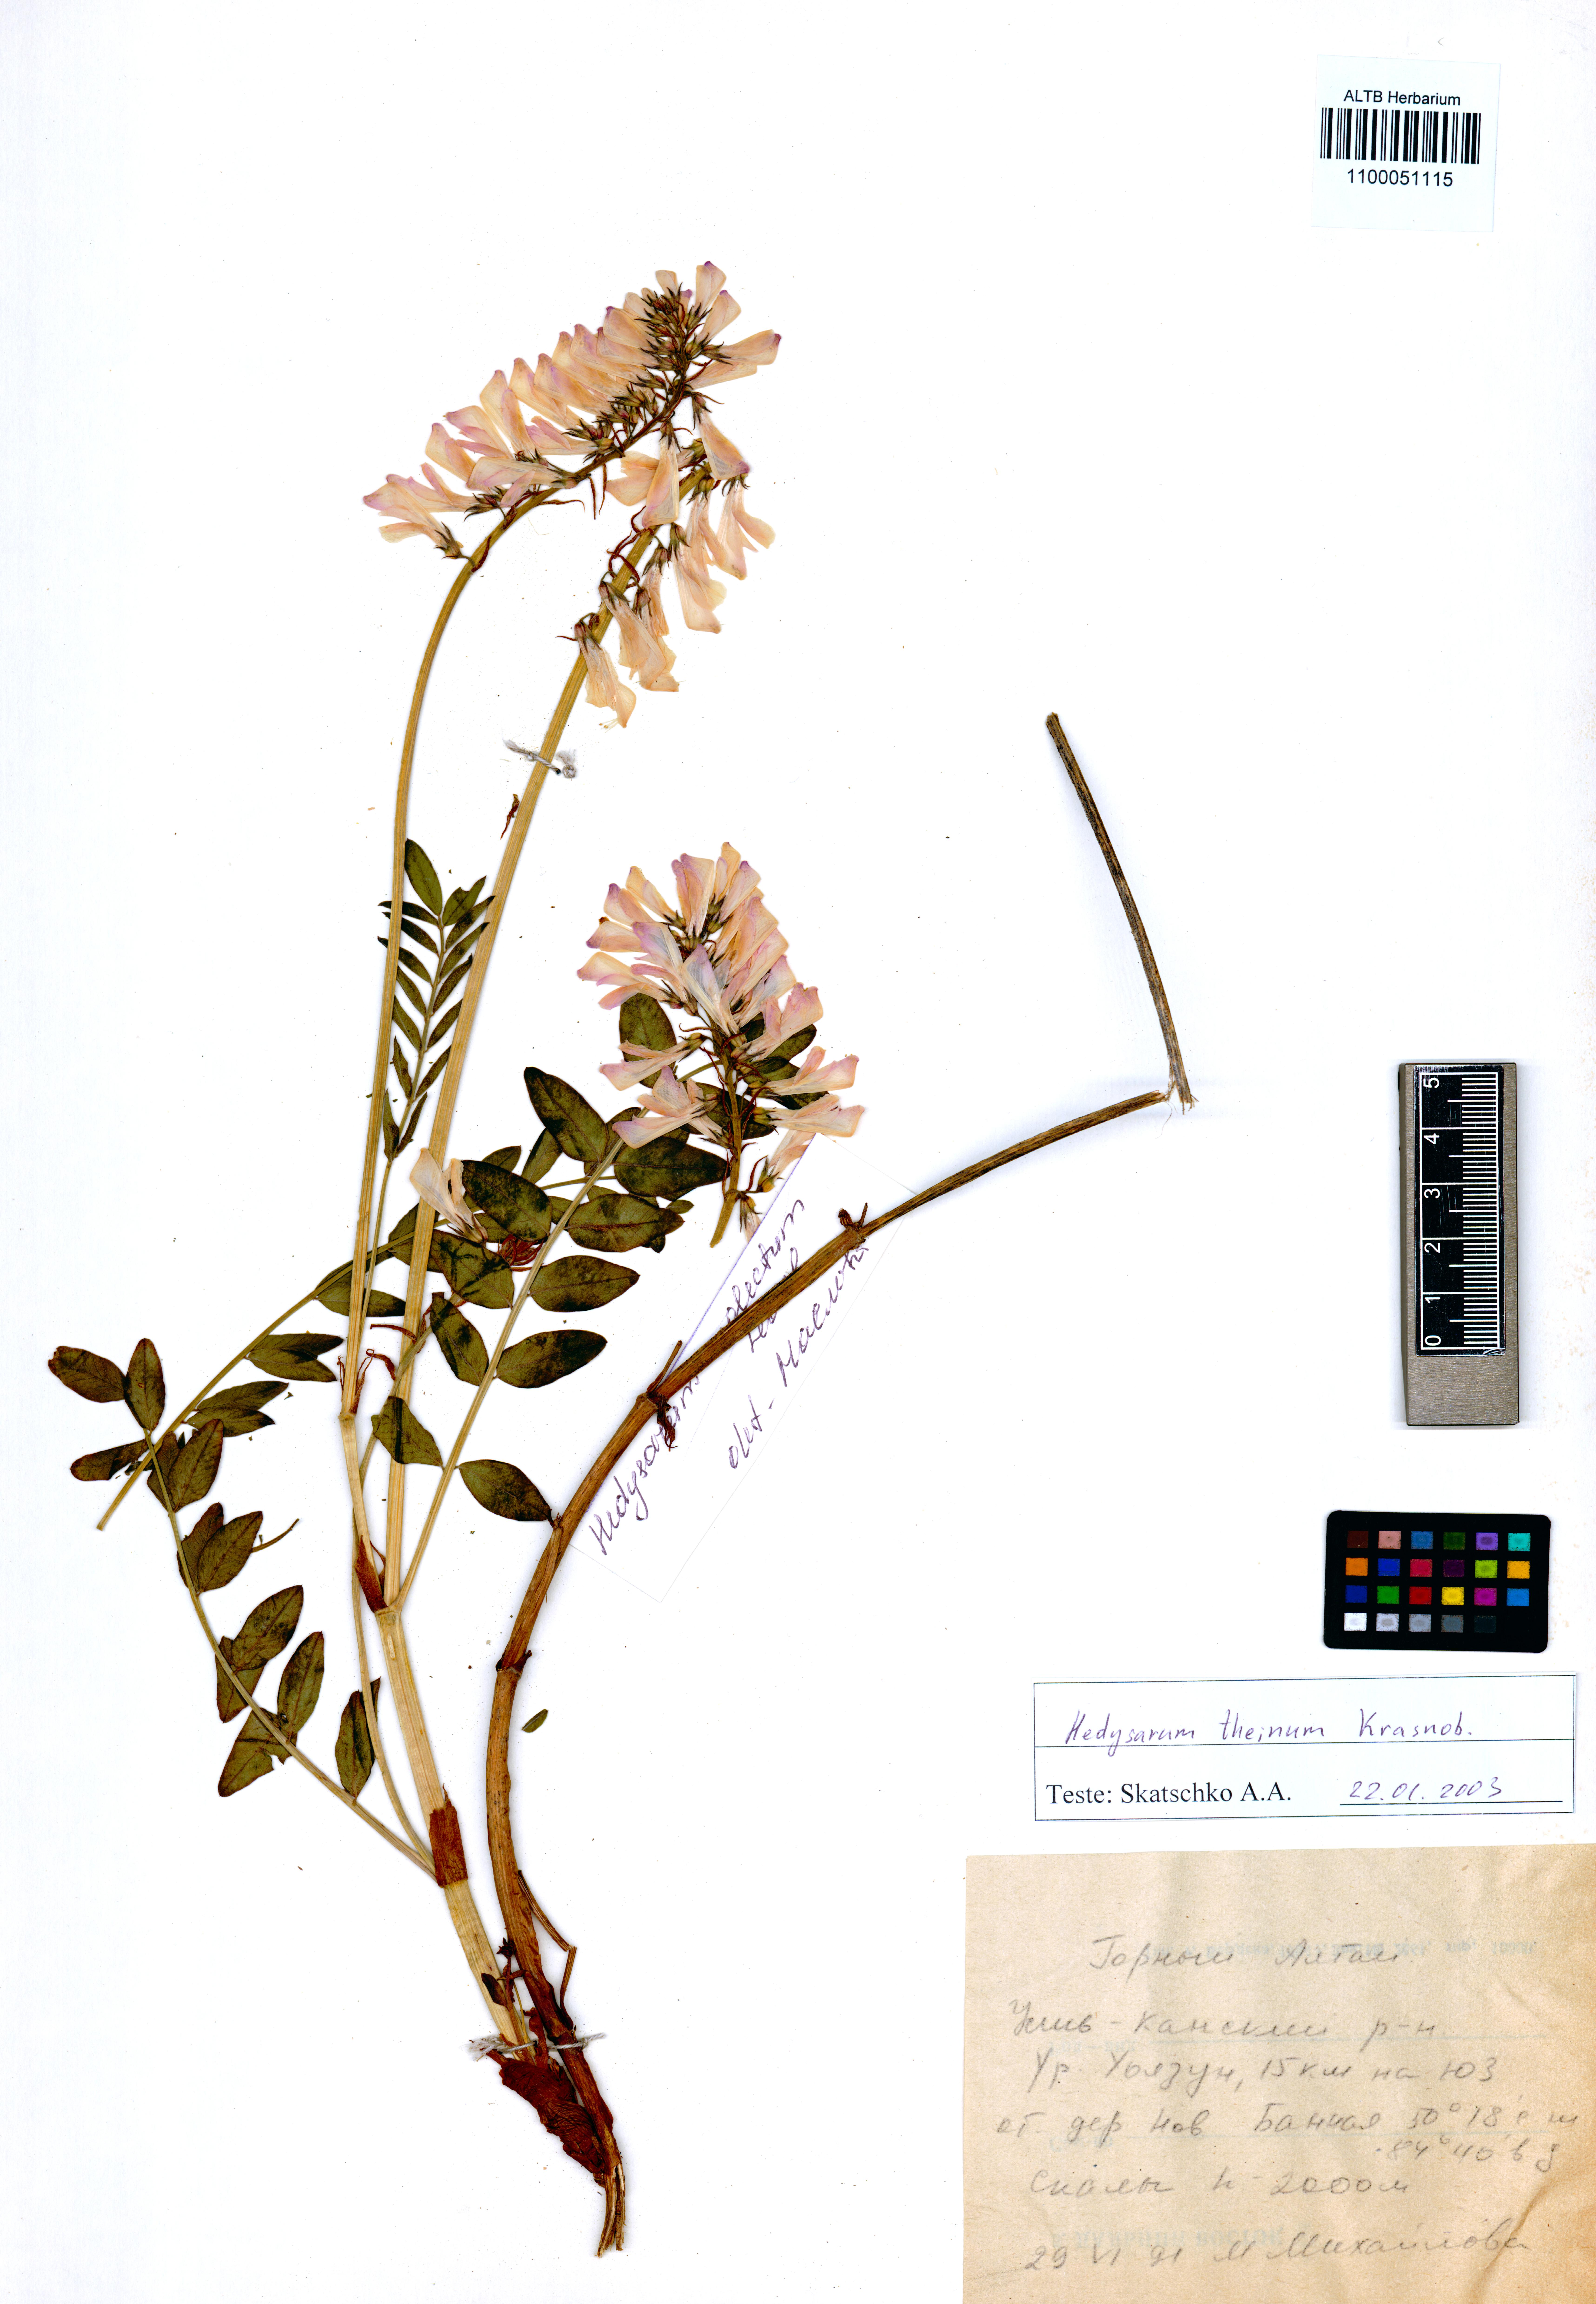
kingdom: Plantae
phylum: Tracheophyta
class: Magnoliopsida
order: Fabales
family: Fabaceae
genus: Hedysarum
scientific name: Hedysarum theinum
